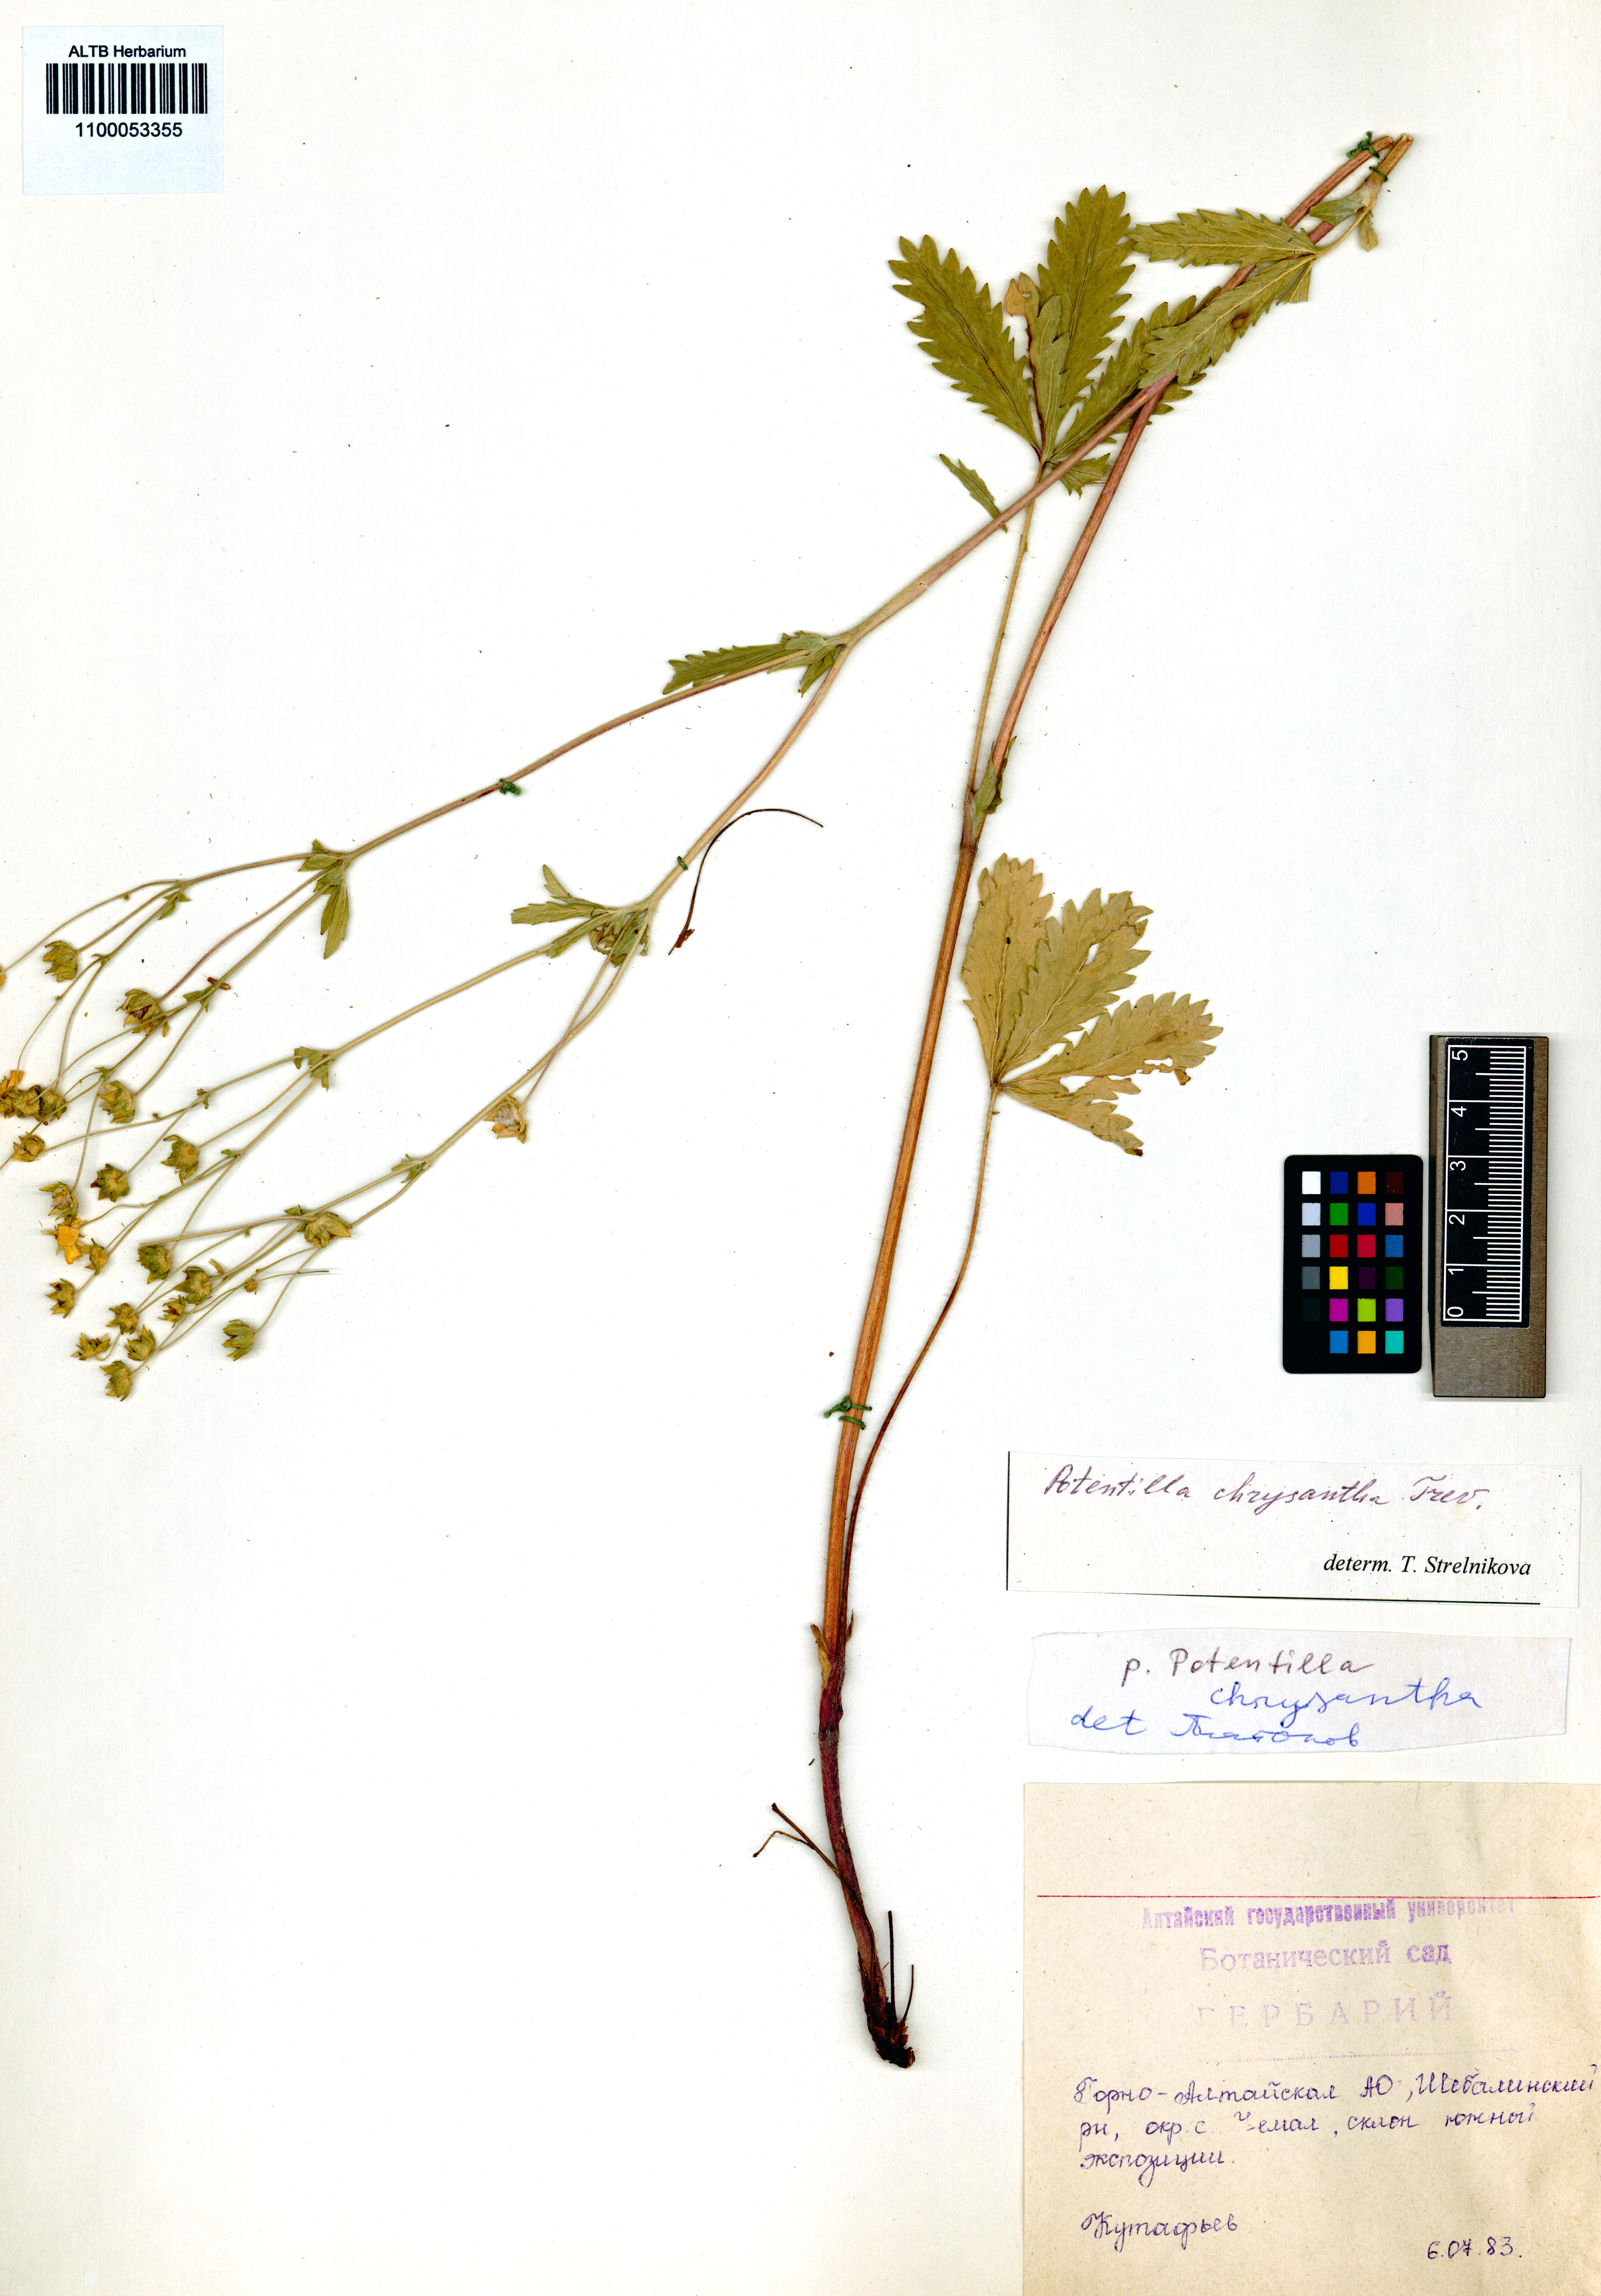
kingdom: Plantae
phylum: Tracheophyta
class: Magnoliopsida
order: Rosales
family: Rosaceae
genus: Potentilla
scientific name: Potentilla chrysantha
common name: Thuringian cinquefoil
